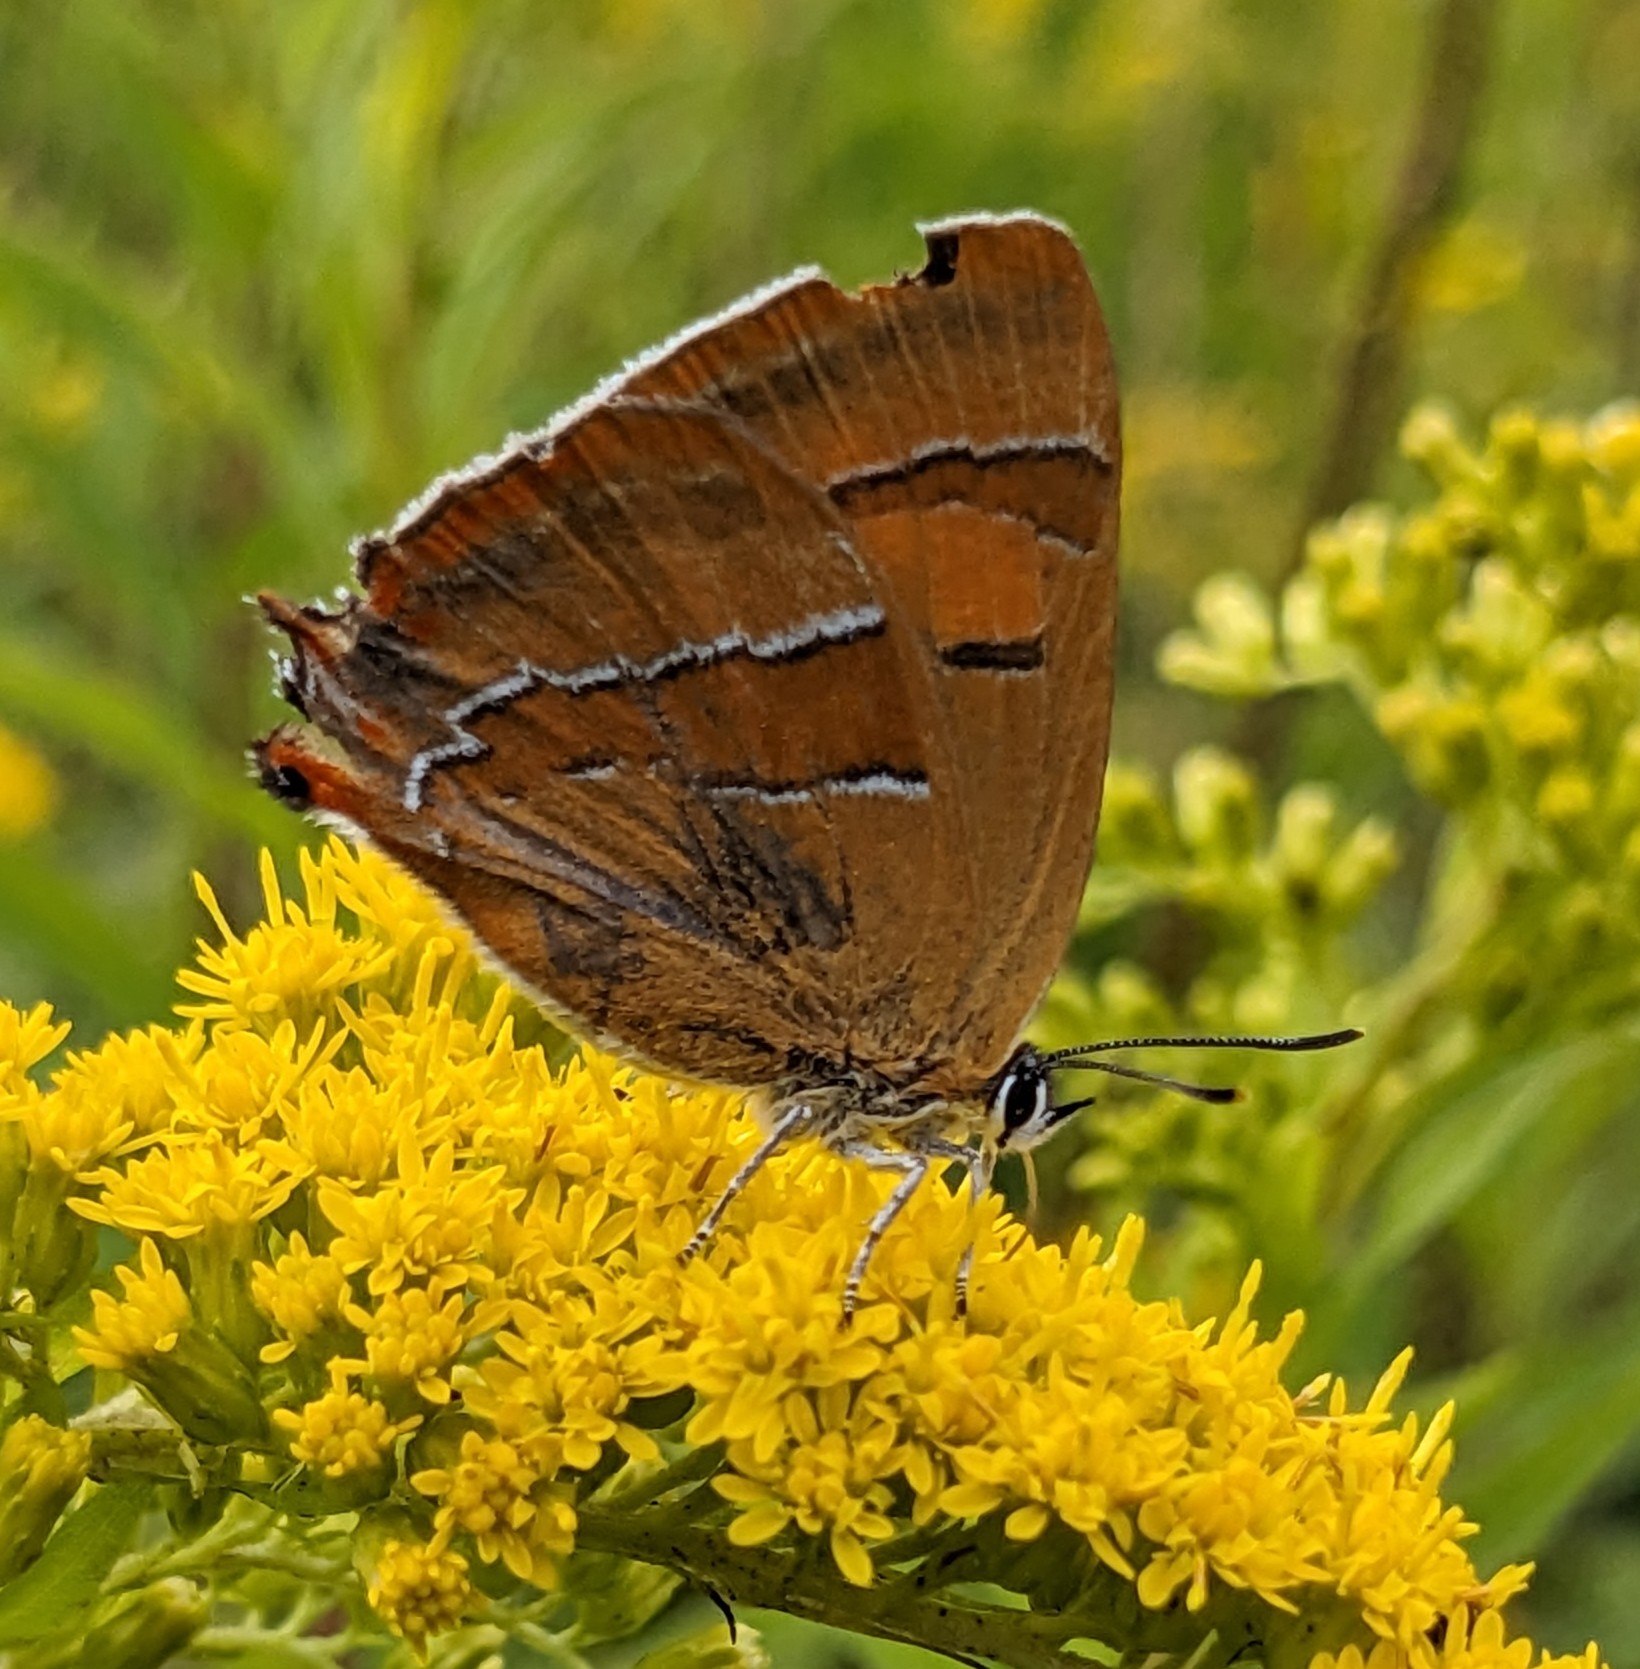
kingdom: Animalia
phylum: Arthropoda
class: Insecta
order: Lepidoptera
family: Lycaenidae
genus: Thecla
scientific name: Thecla betulae
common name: Guldhale
